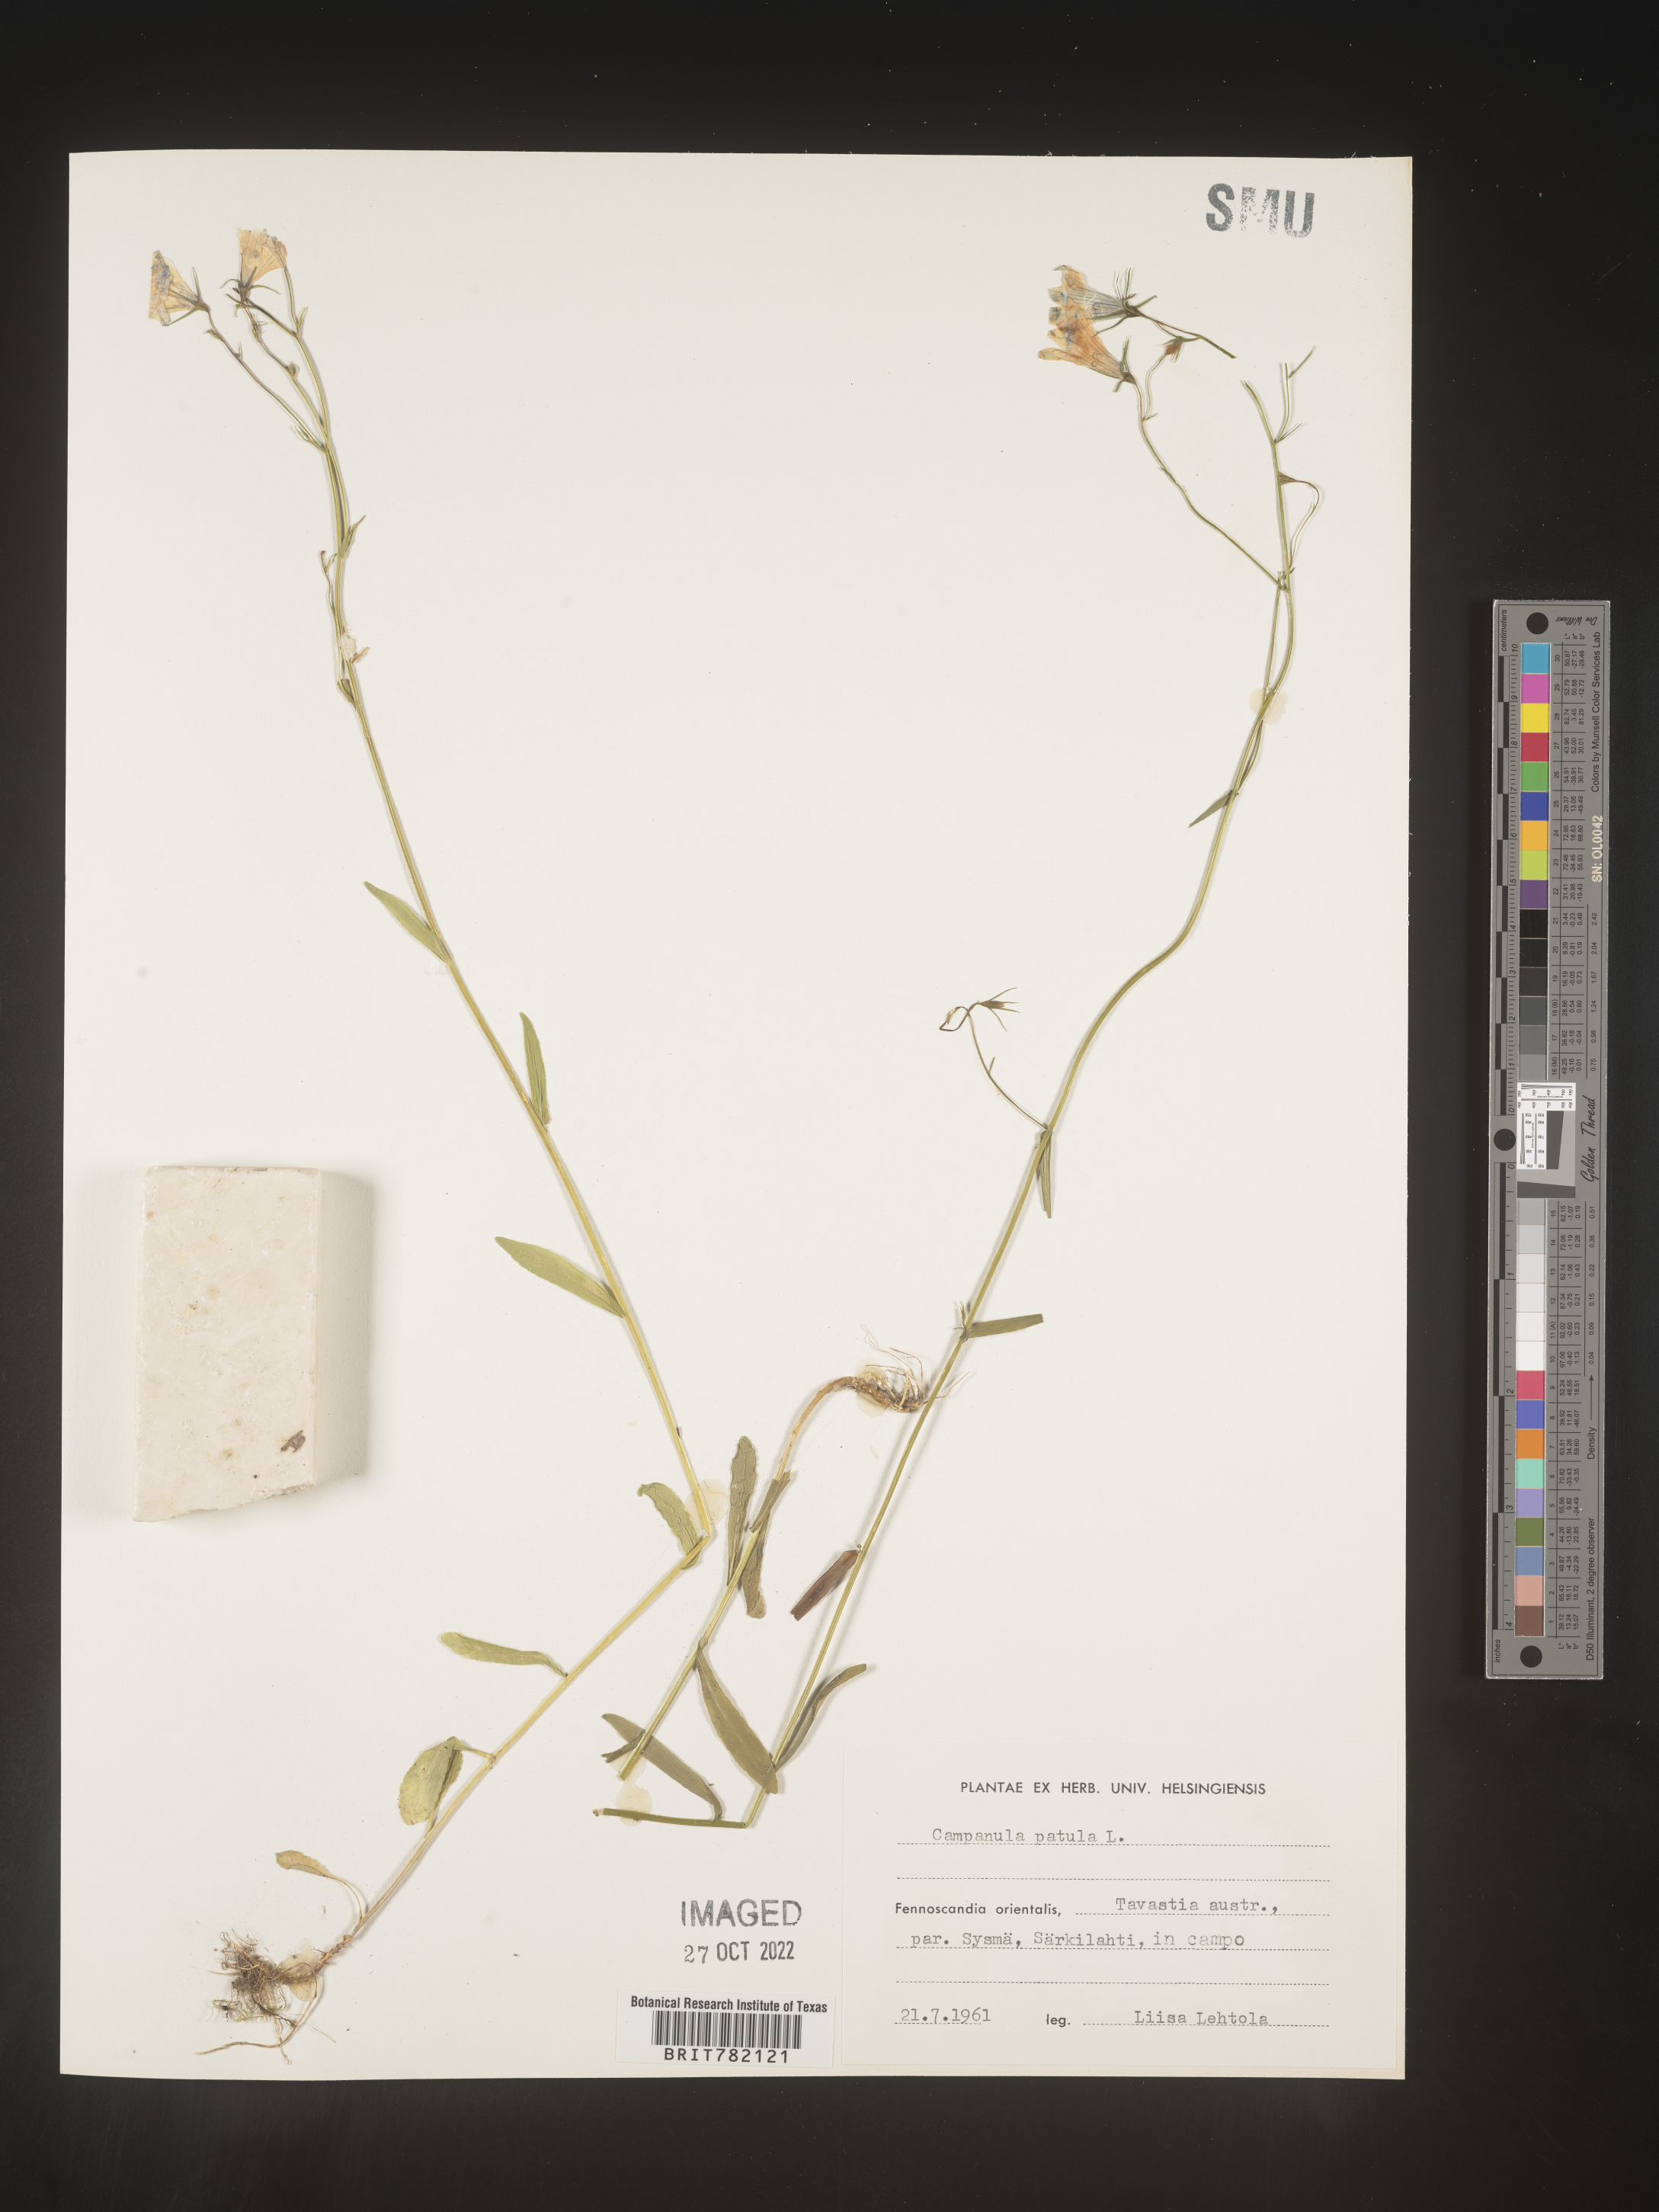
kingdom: Plantae
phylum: Tracheophyta
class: Magnoliopsida
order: Asterales
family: Campanulaceae
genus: Campanula
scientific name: Campanula
